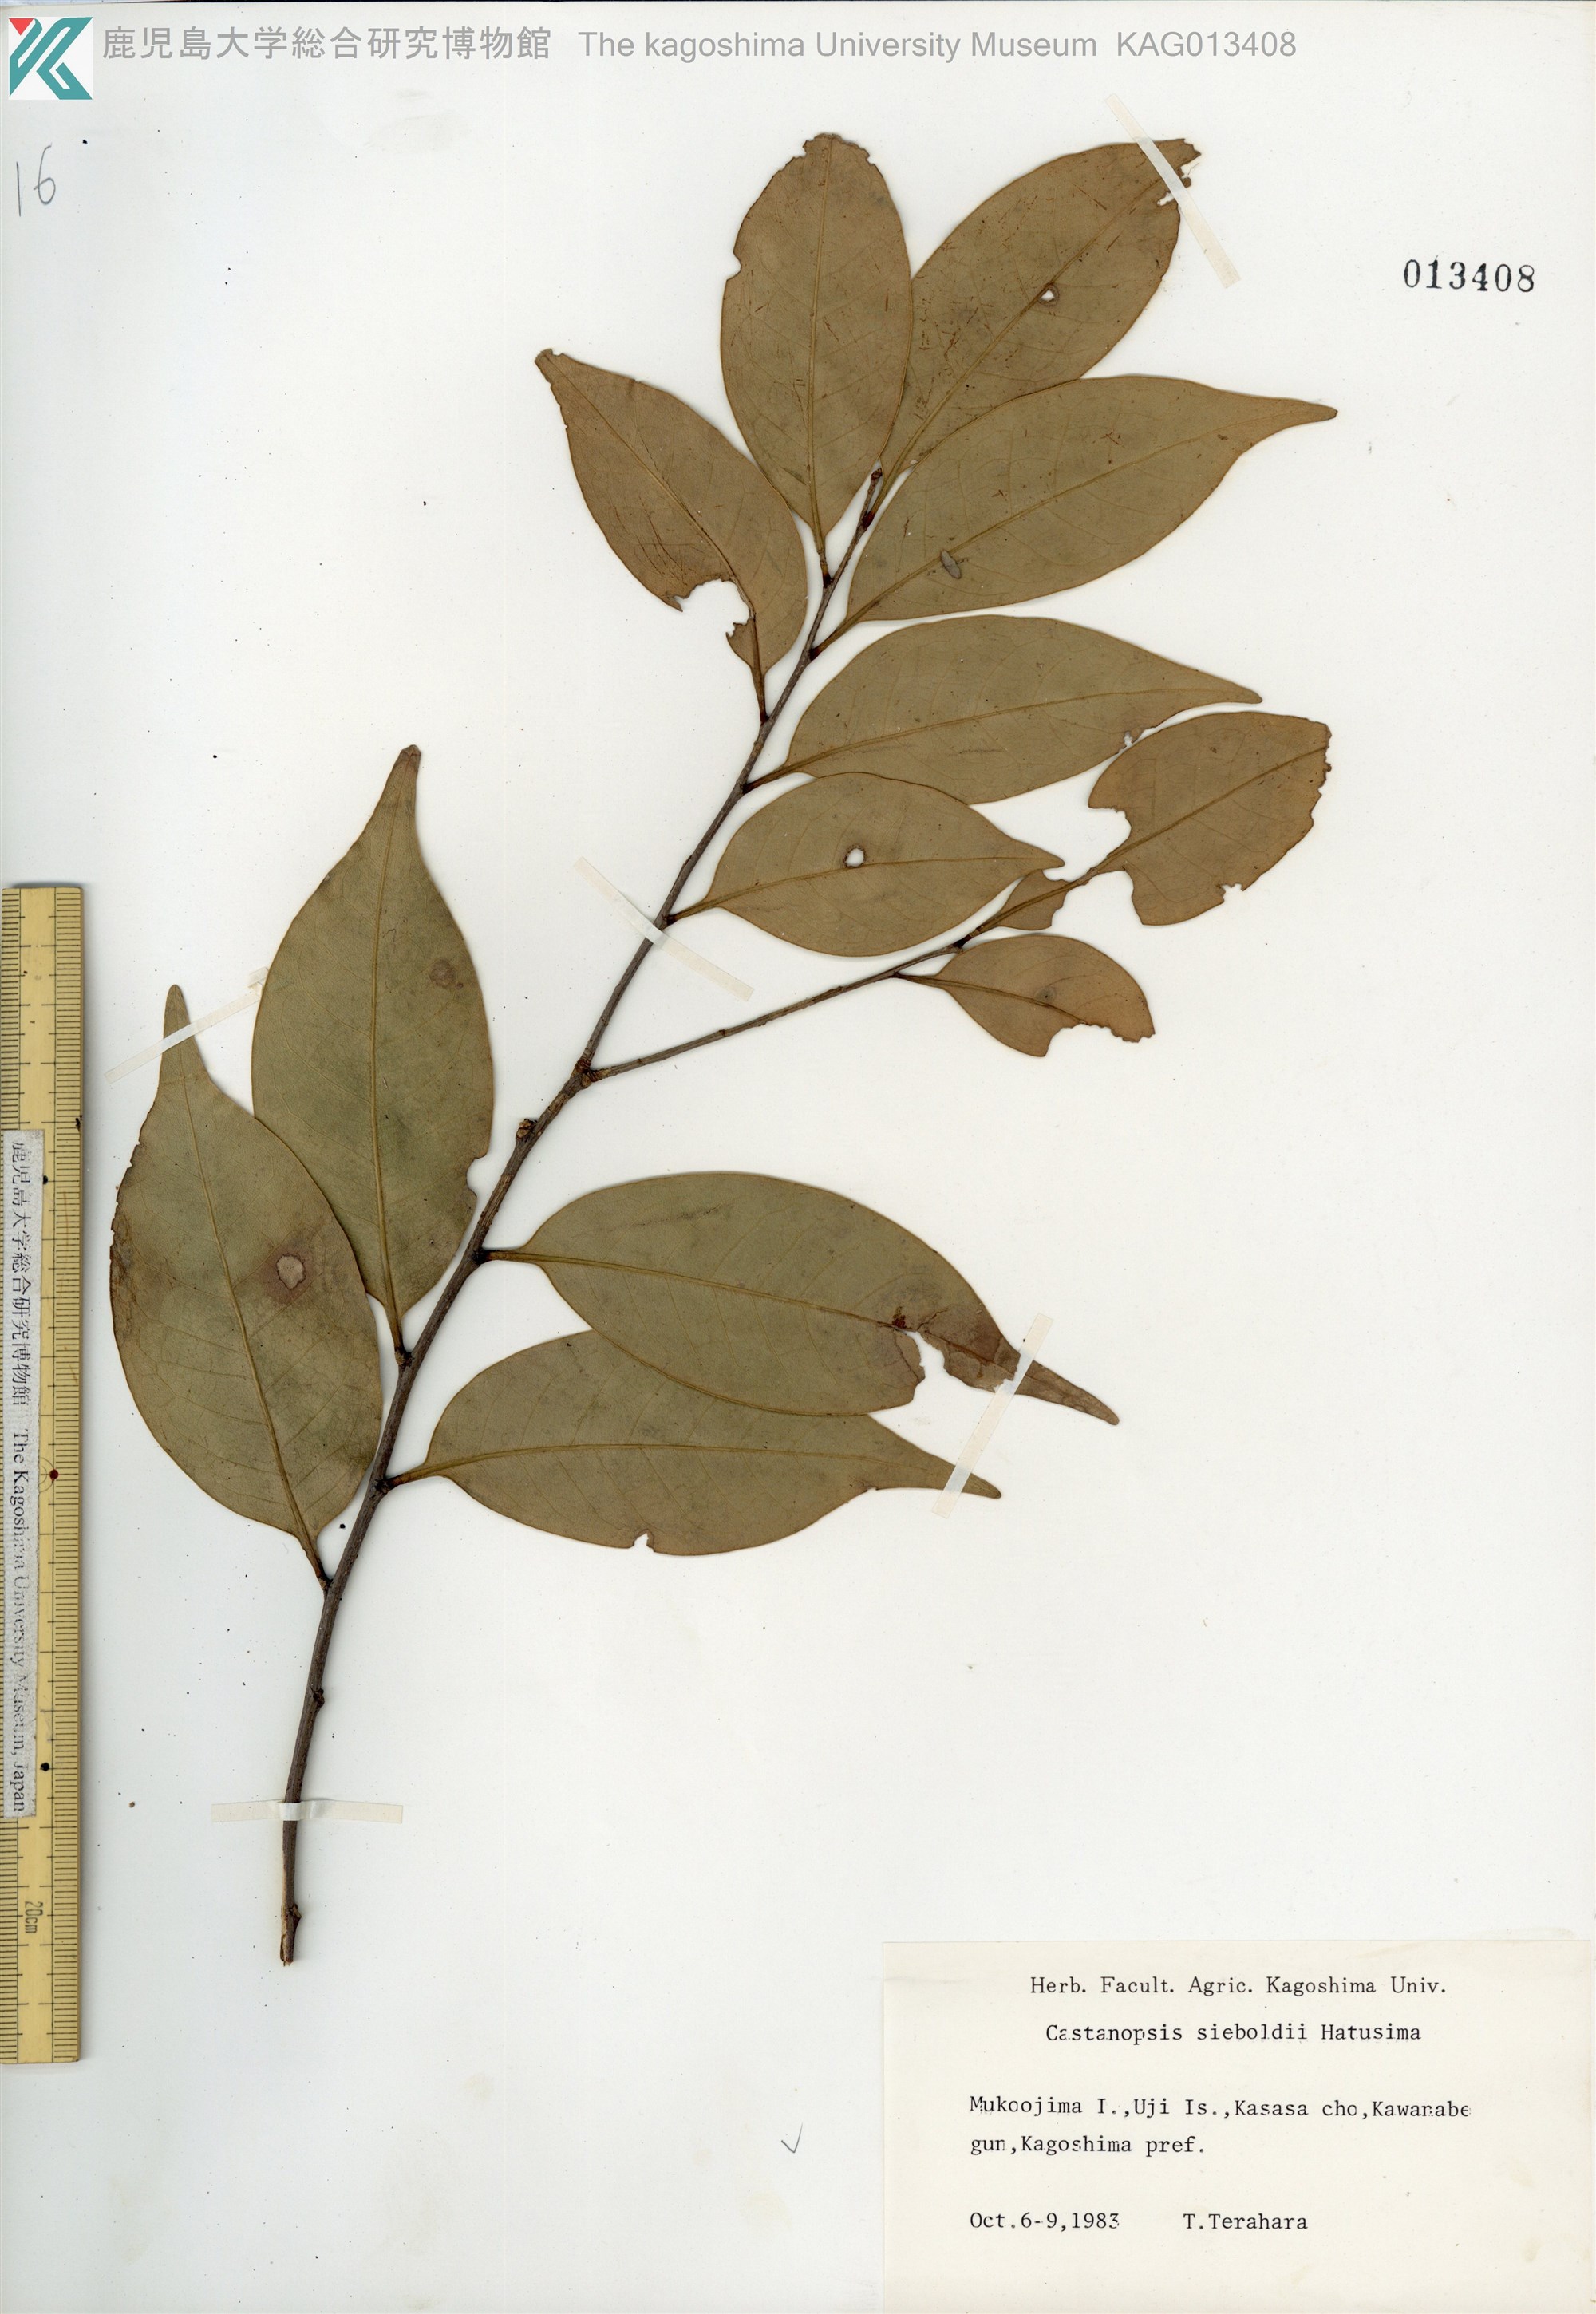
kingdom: Plantae
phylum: Tracheophyta
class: Magnoliopsida
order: Fagales
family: Fagaceae
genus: Castanopsis
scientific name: Castanopsis sieboldii
